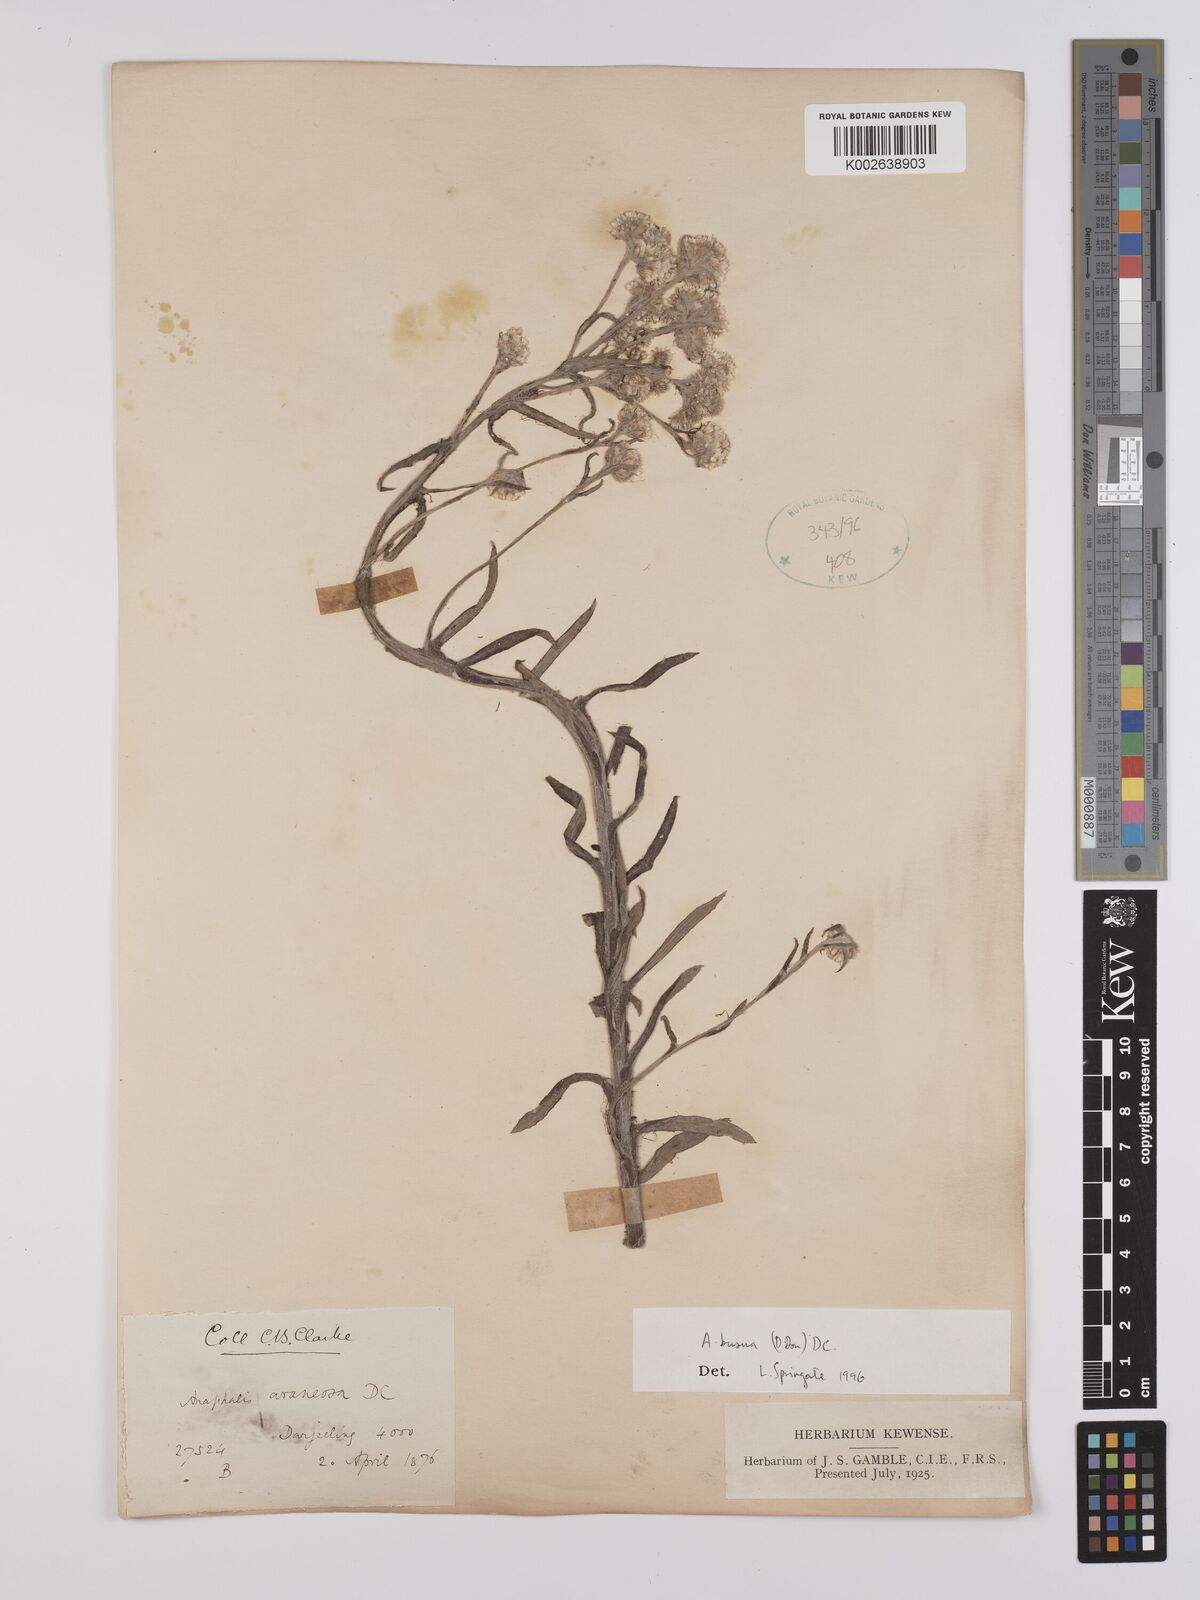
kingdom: Plantae
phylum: Tracheophyta
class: Magnoliopsida
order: Asterales
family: Asteraceae
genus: Anaphalis
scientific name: Anaphalis busua
